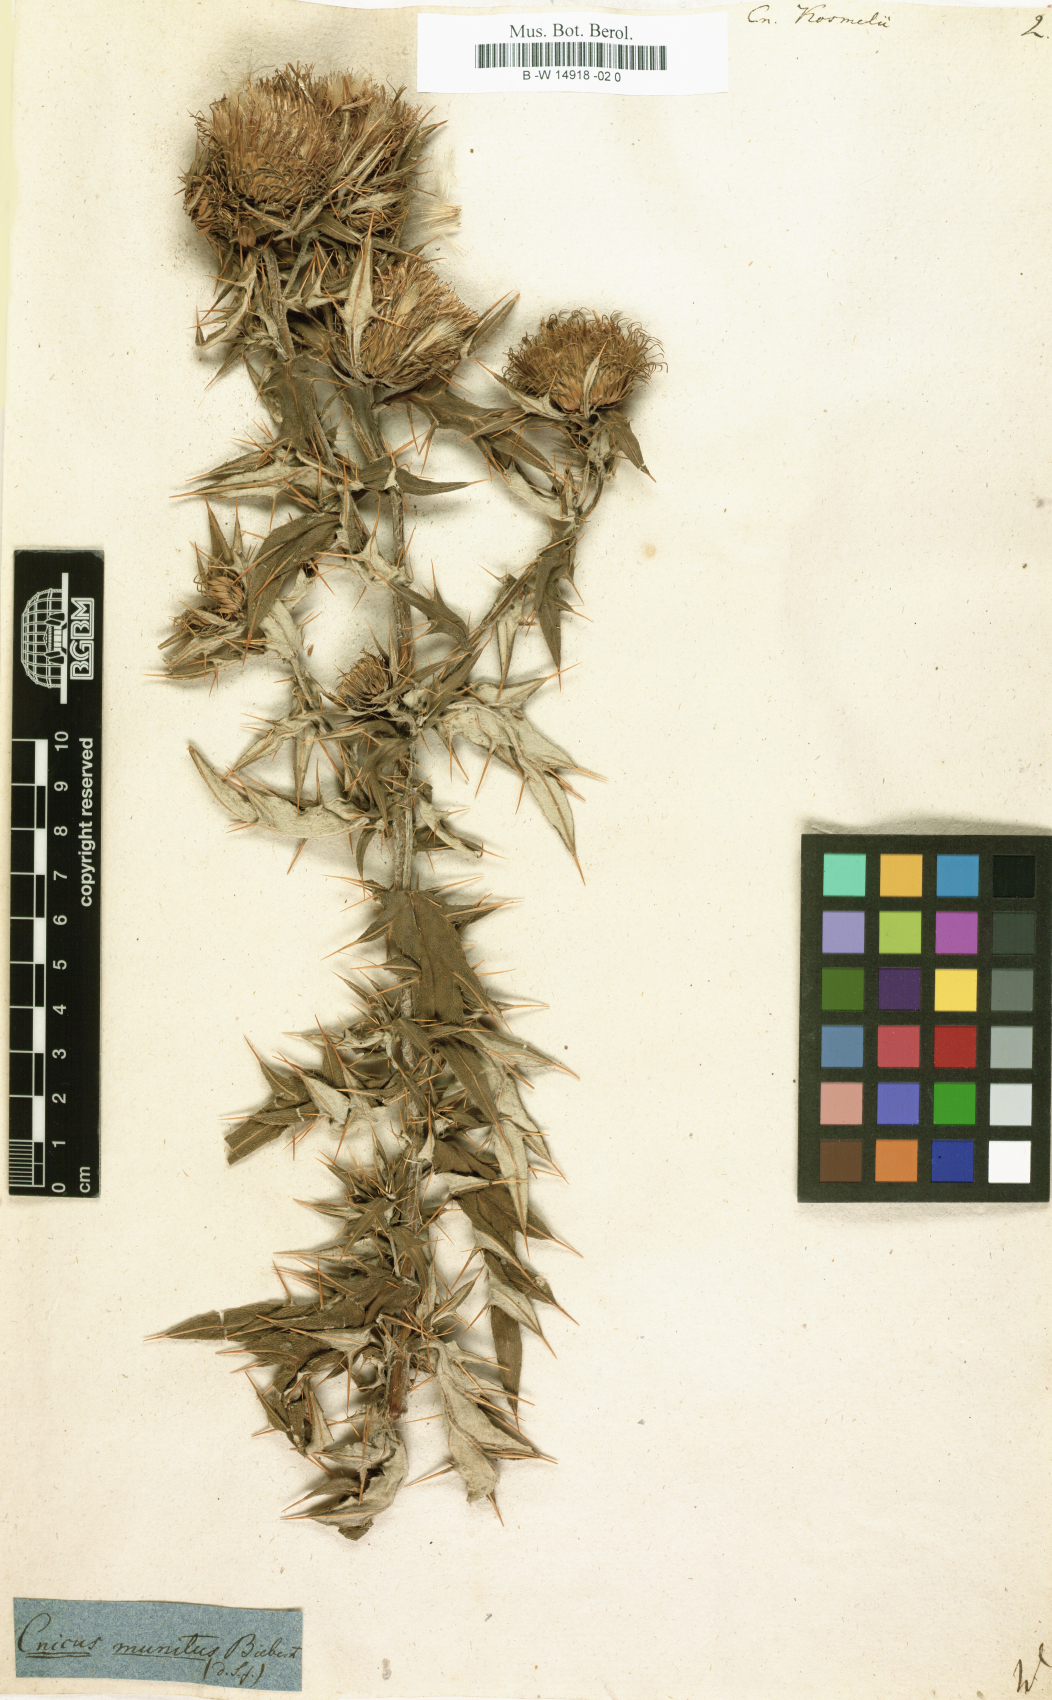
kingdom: Plantae
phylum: Tracheophyta
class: Magnoliopsida
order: Asterales
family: Asteraceae
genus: Lophiolepis
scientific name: Lophiolepis kosmelii
